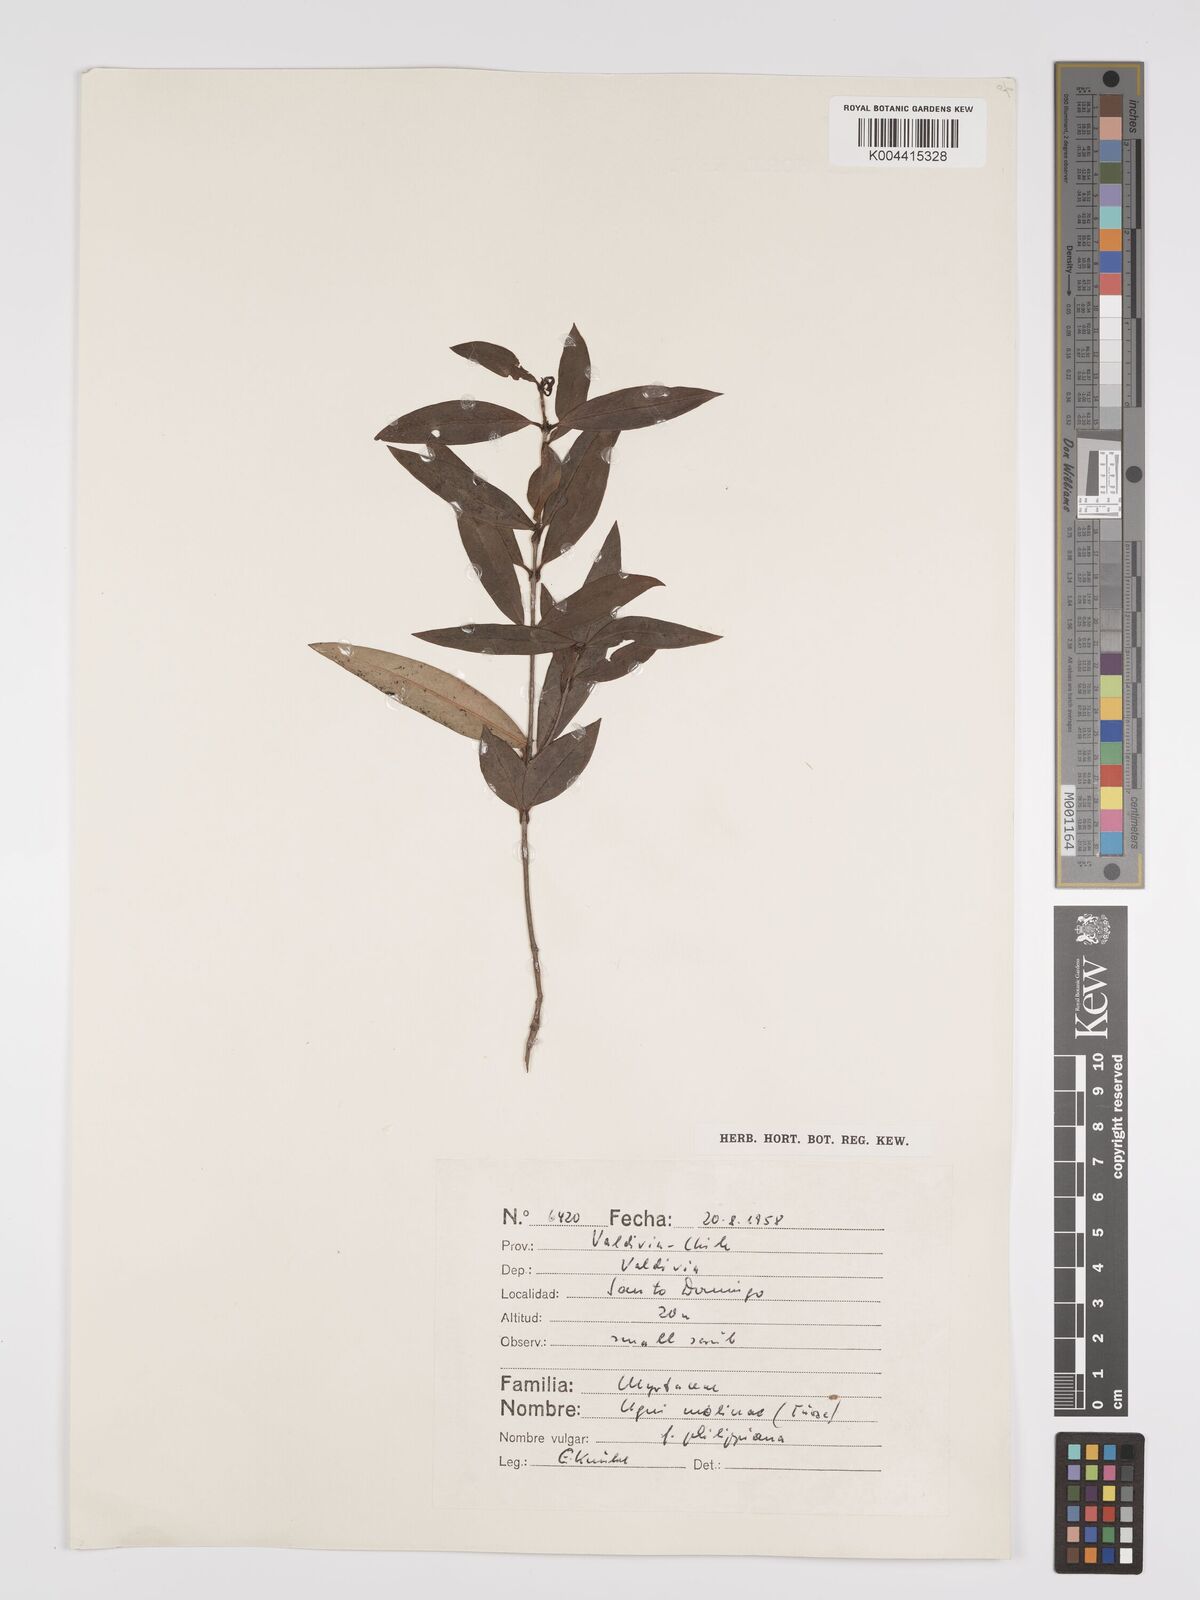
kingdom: Plantae
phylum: Tracheophyta
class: Magnoliopsida
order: Myrtales
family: Myrtaceae
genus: Ugni
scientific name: Ugni molinae
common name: Chilean-guava
